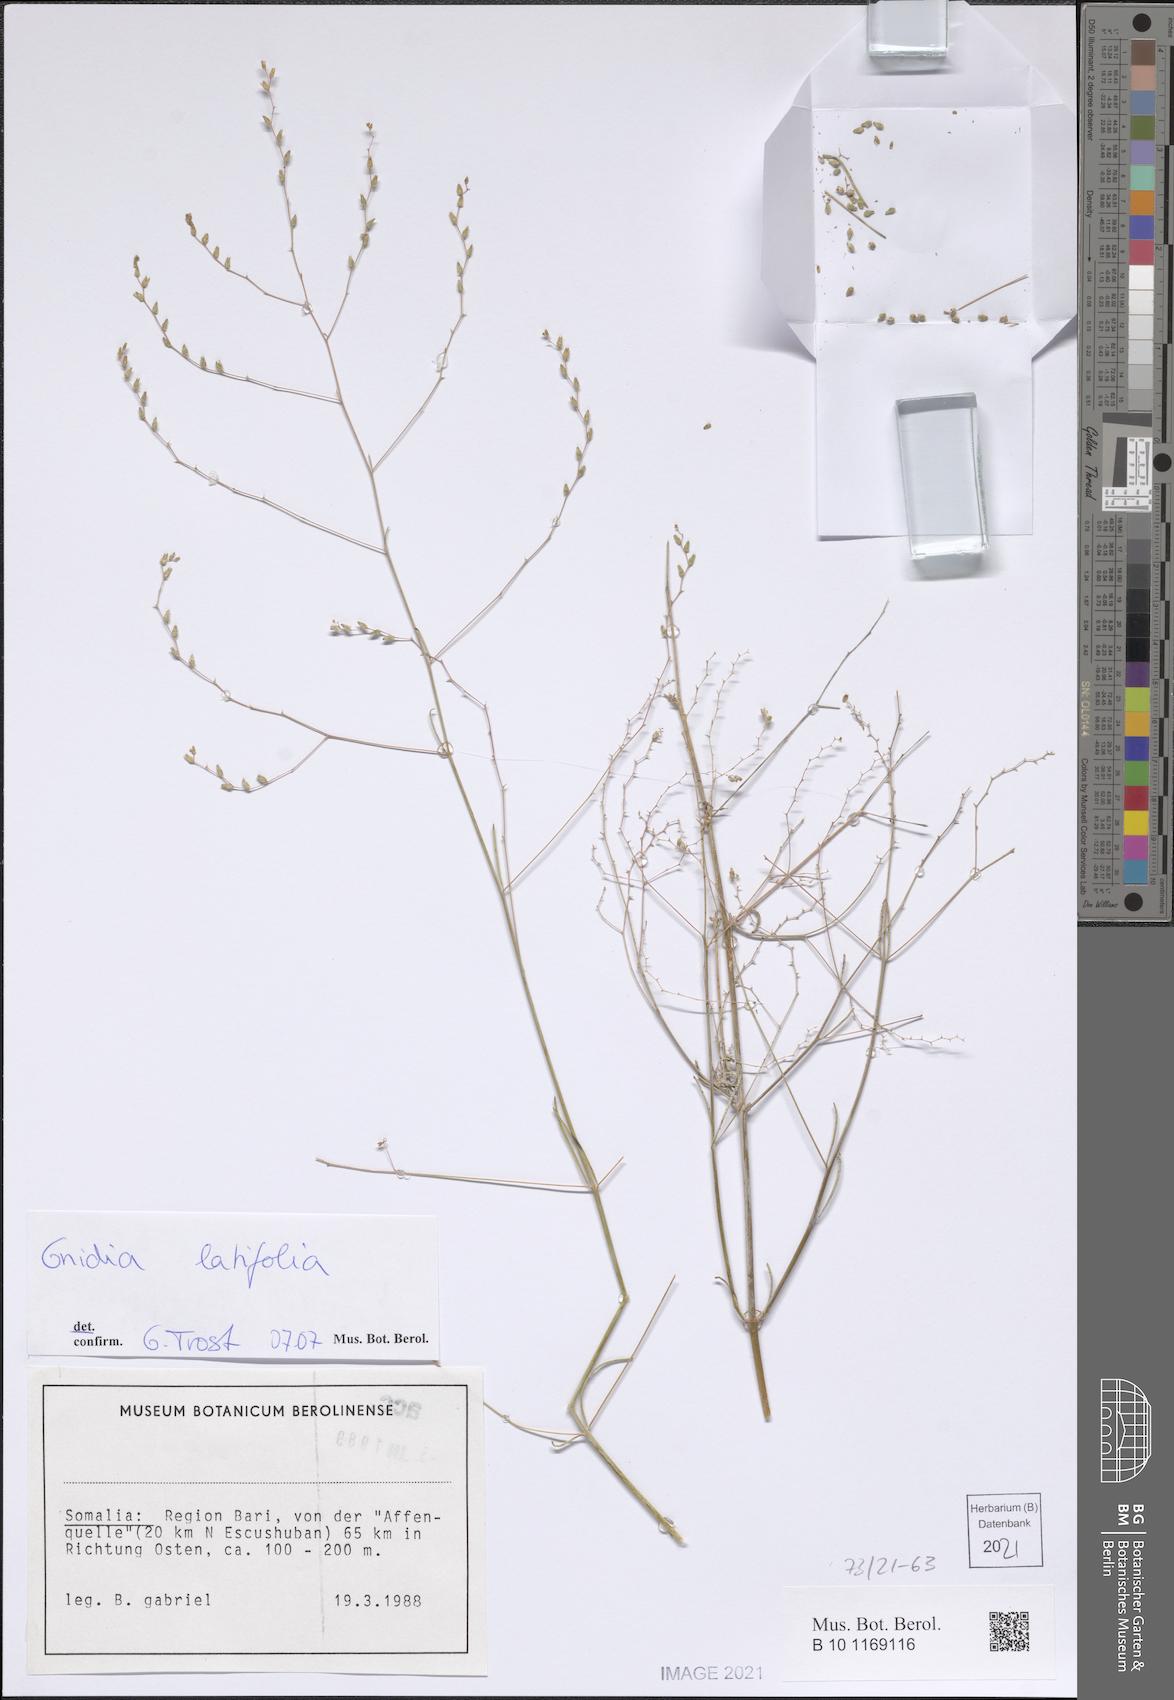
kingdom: Plantae
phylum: Tracheophyta
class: Magnoliopsida
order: Malvales
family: Thymelaeaceae
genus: Gnidia
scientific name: Gnidia latifolia
